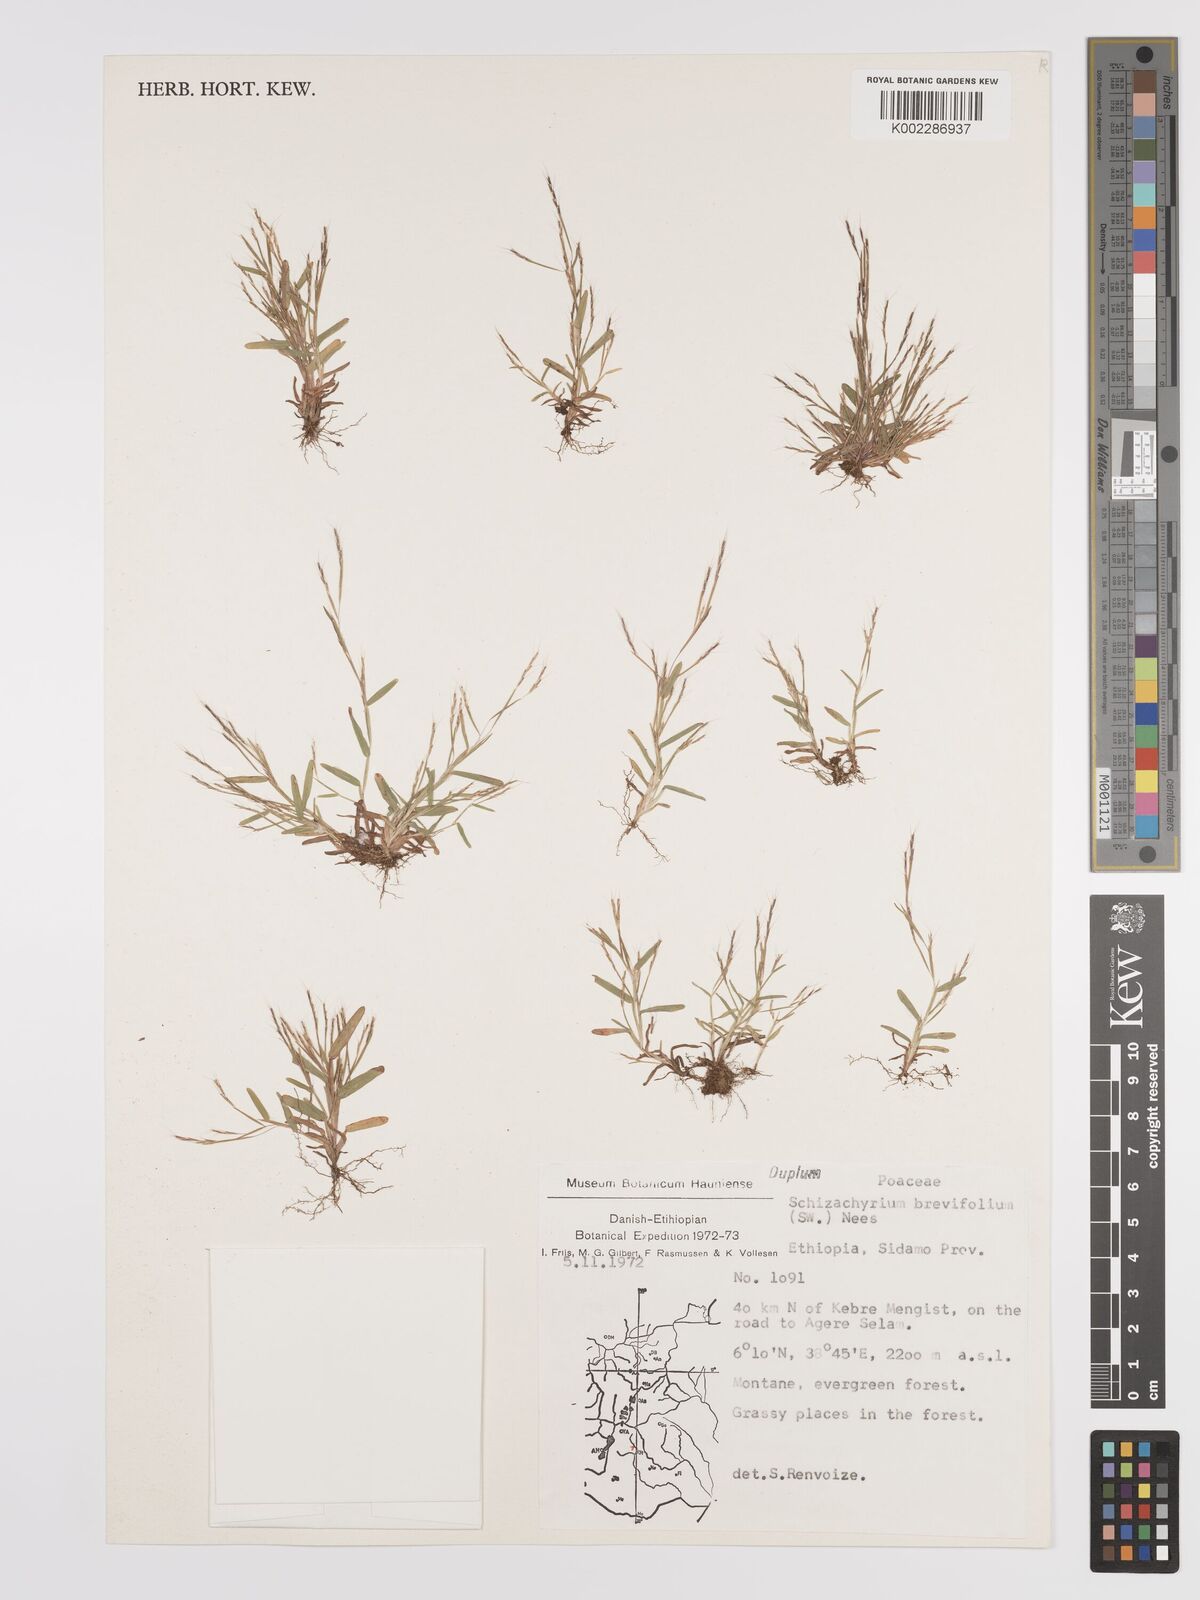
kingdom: Plantae
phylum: Tracheophyta
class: Liliopsida
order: Poales
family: Poaceae
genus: Schizachyrium
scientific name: Schizachyrium brevifolium
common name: Serillo dulce
